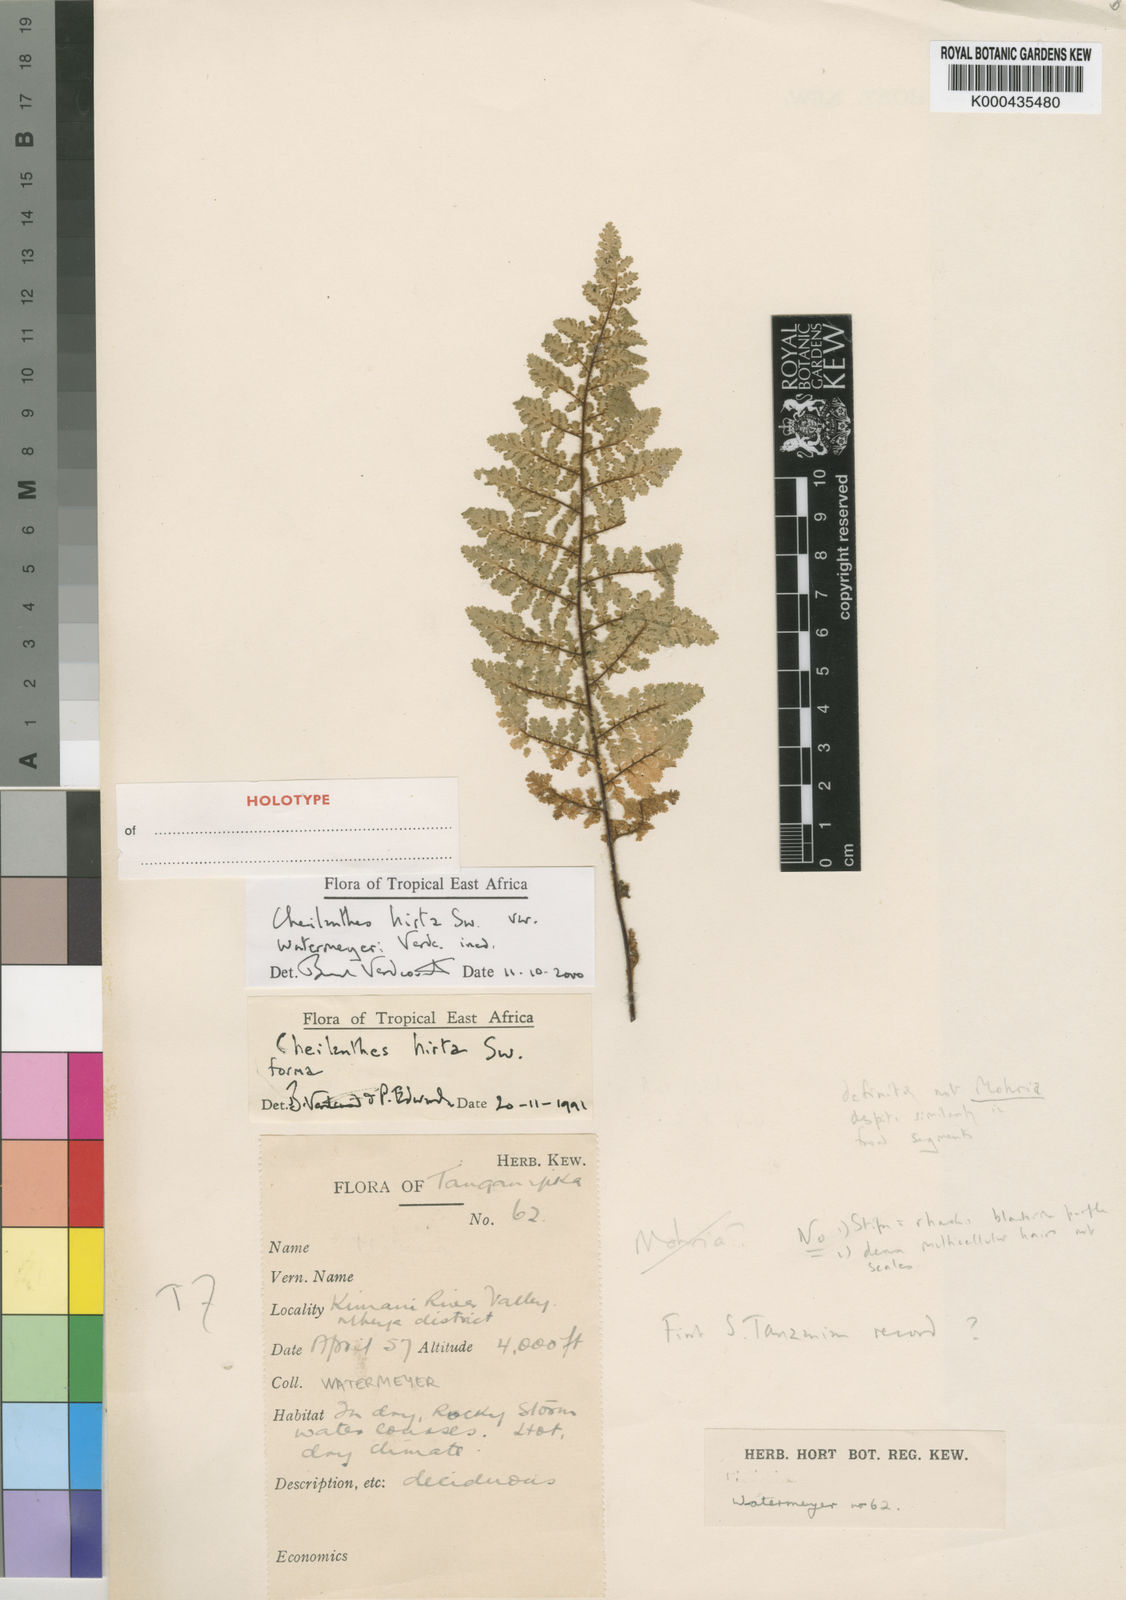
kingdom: Plantae
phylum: Tracheophyta
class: Polypodiopsida
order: Polypodiales
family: Pteridaceae
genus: Cheilanthes
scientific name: Cheilanthes hirta
